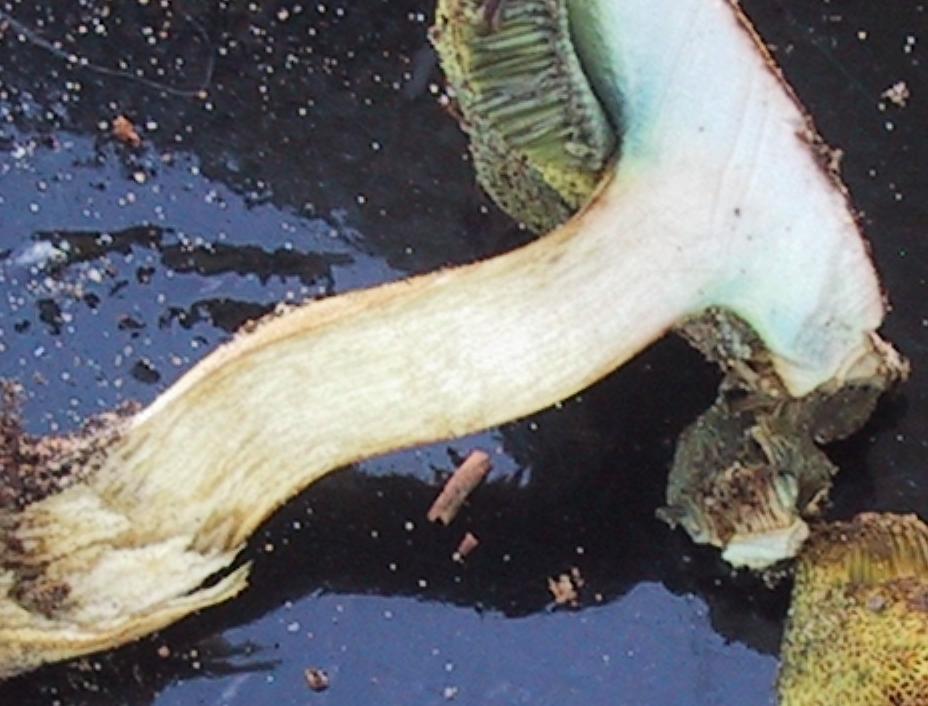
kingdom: Fungi
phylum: Basidiomycota
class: Agaricomycetes
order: Boletales
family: Boletaceae
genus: Imleria
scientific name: Imleria badia
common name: brunstokket rørhat
